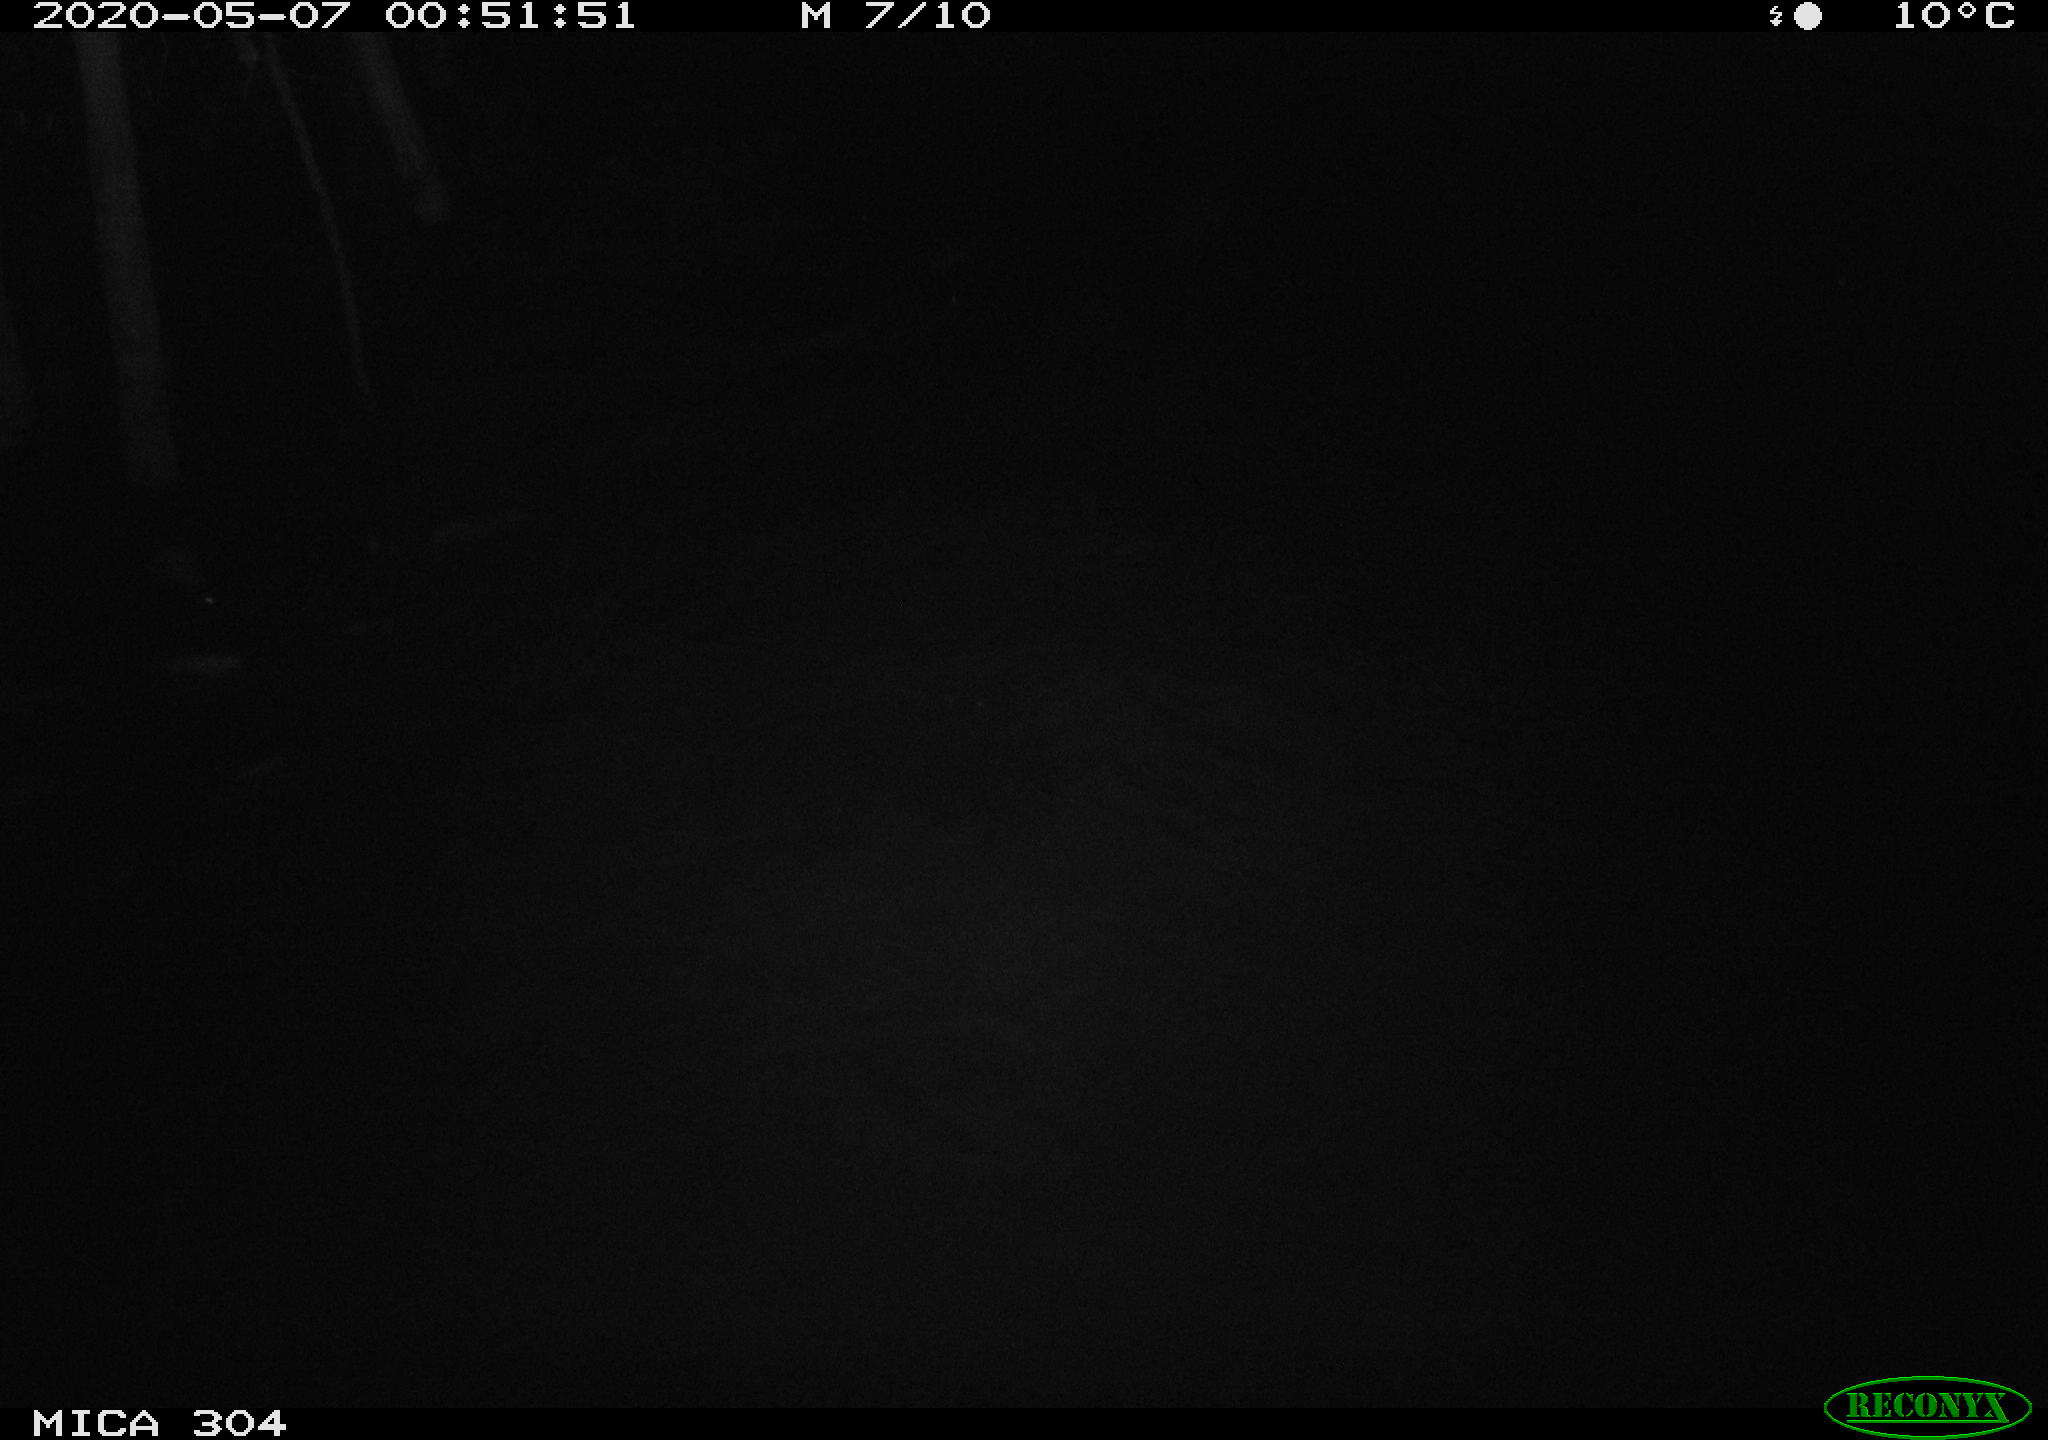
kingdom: Animalia
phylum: Chordata
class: Aves
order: Anseriformes
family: Anatidae
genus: Anas
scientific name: Anas platyrhynchos
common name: Mallard
